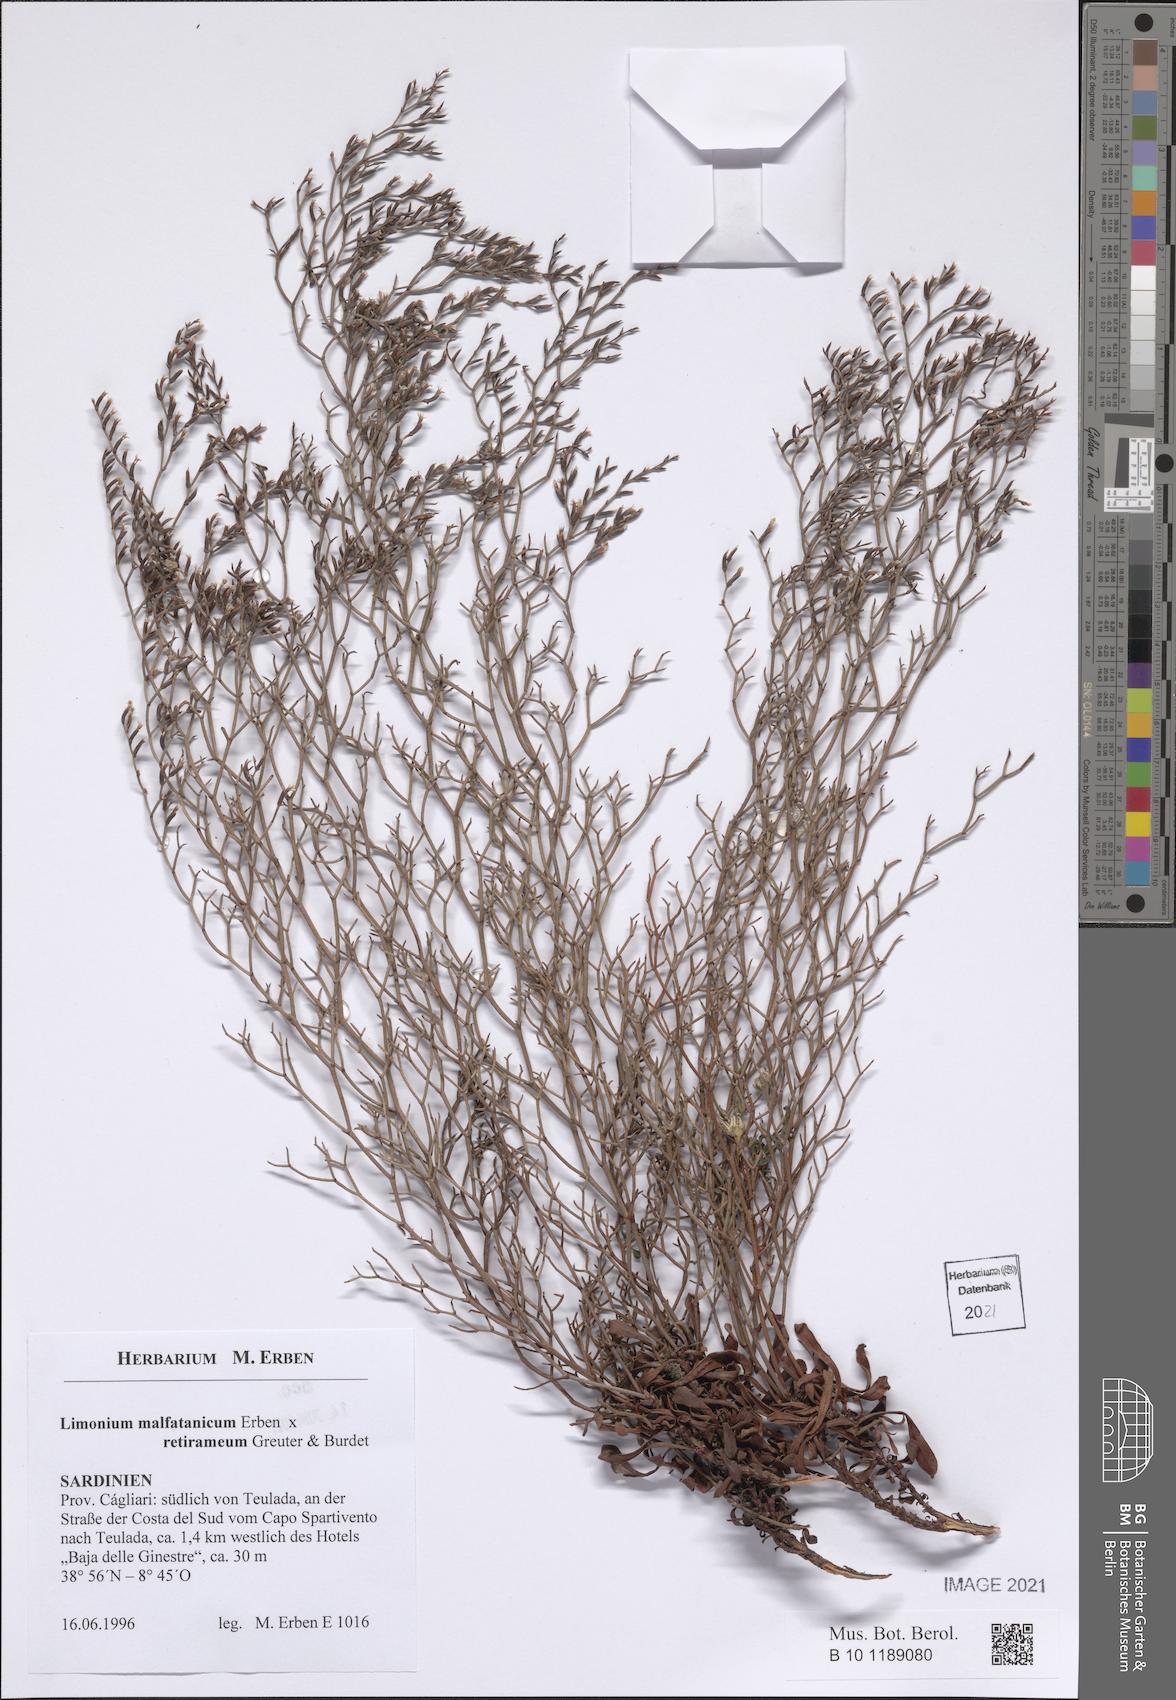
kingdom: Plantae
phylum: Tracheophyta
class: Magnoliopsida
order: Caryophyllales
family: Plumbaginaceae
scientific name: Plumbaginaceae
